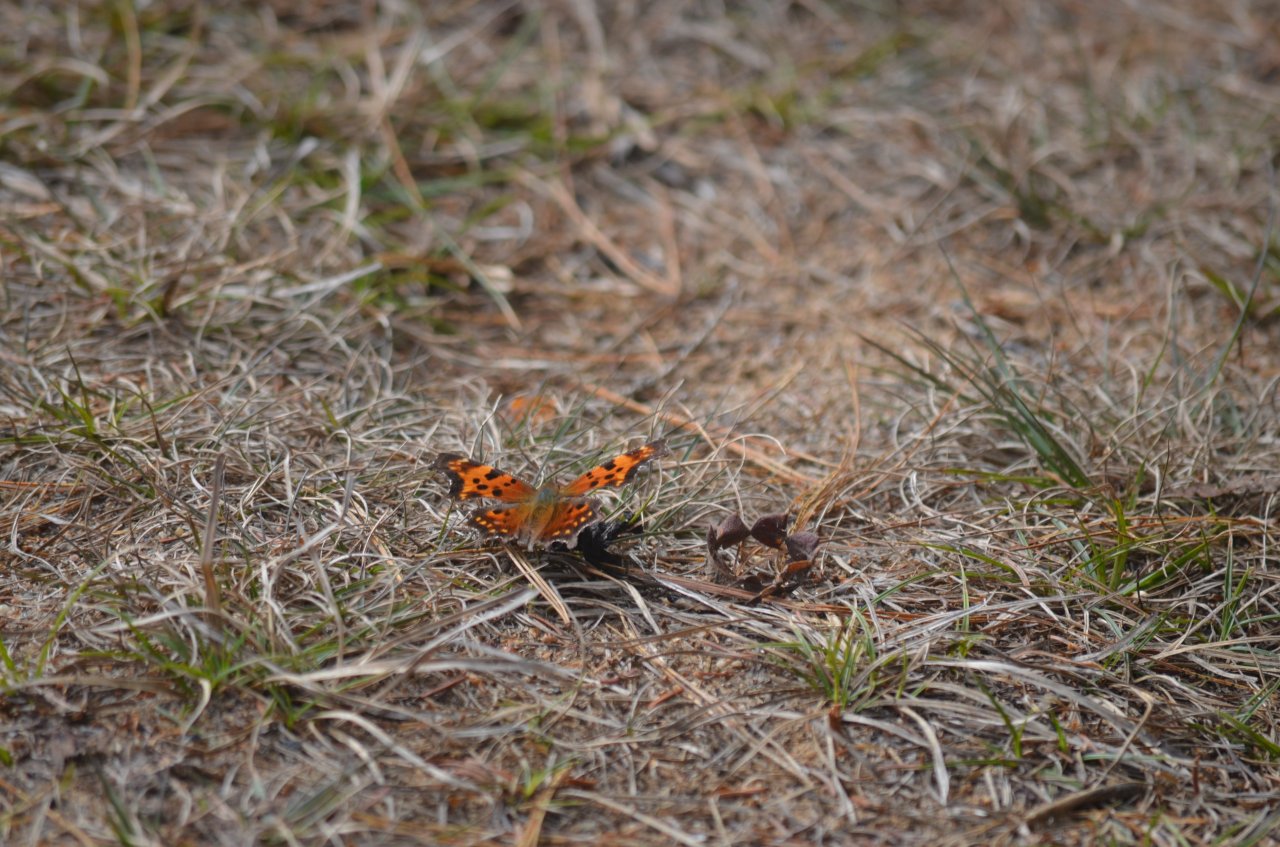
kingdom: Animalia
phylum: Arthropoda
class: Insecta
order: Lepidoptera
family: Nymphalidae
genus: Polygonia
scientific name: Polygonia faunus
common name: Green Comma
